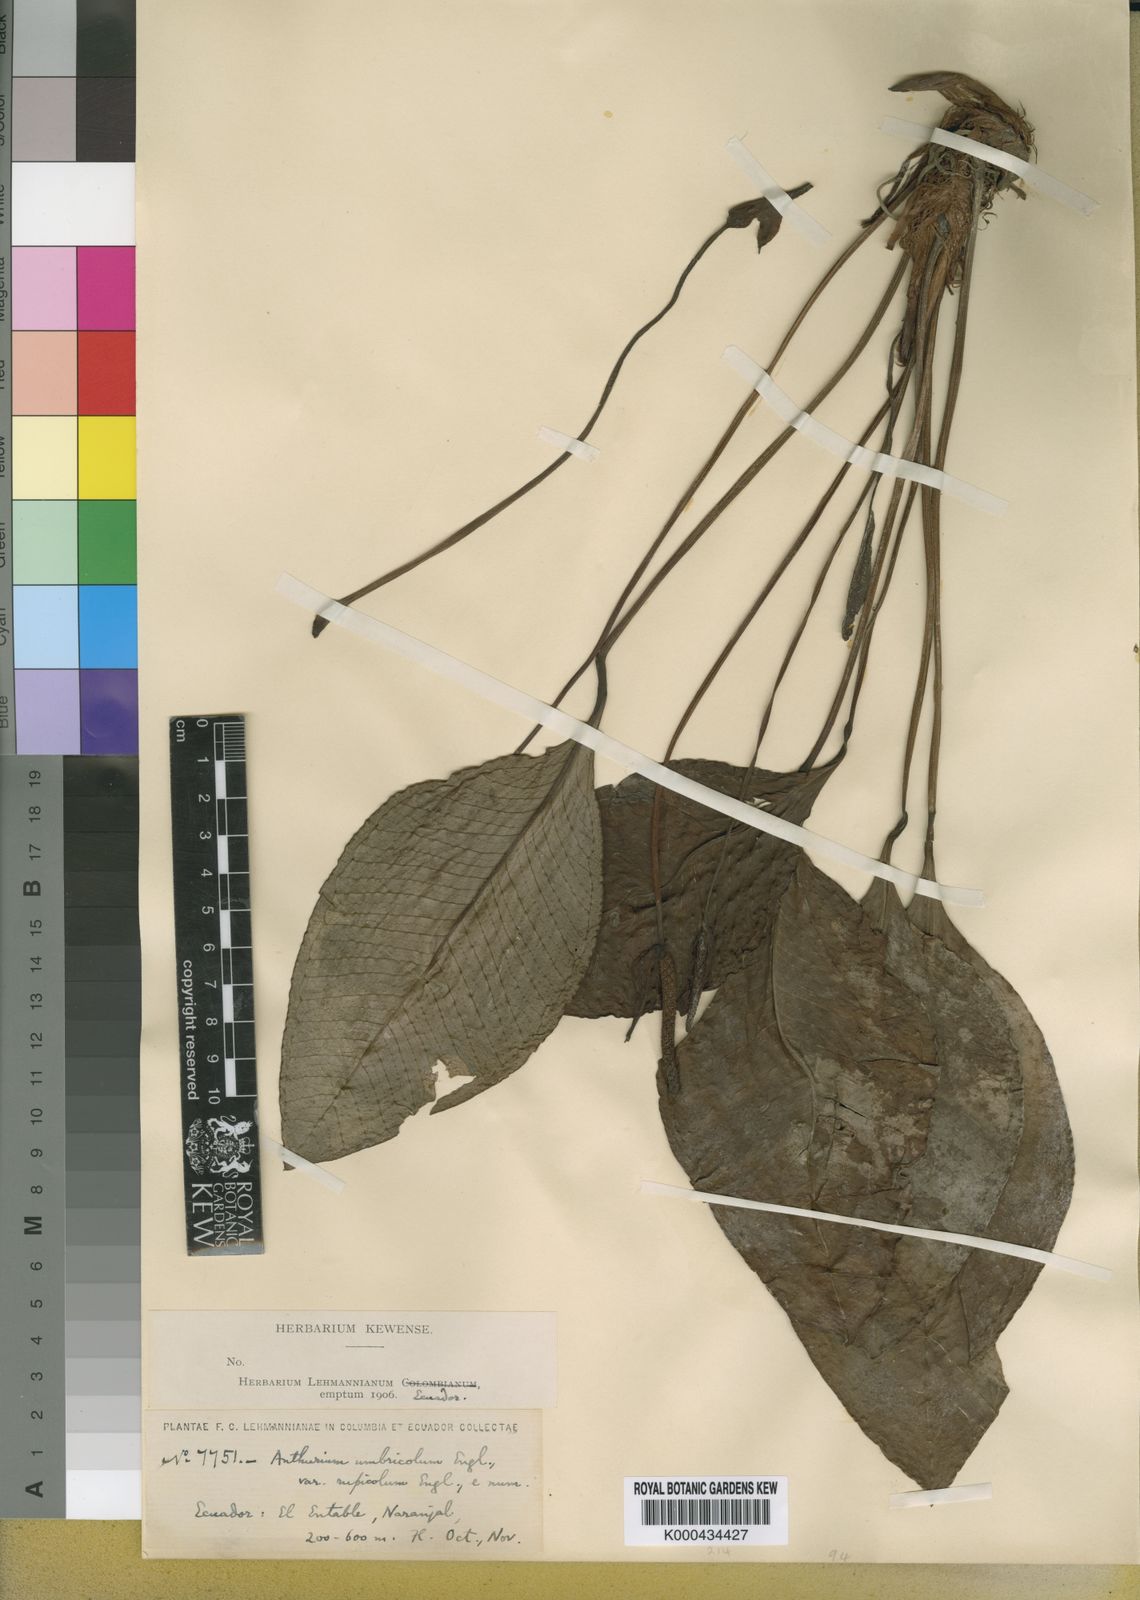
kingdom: Plantae
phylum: Tracheophyta
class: Liliopsida
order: Alismatales
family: Araceae
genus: Anthurium
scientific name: Anthurium umbricola
